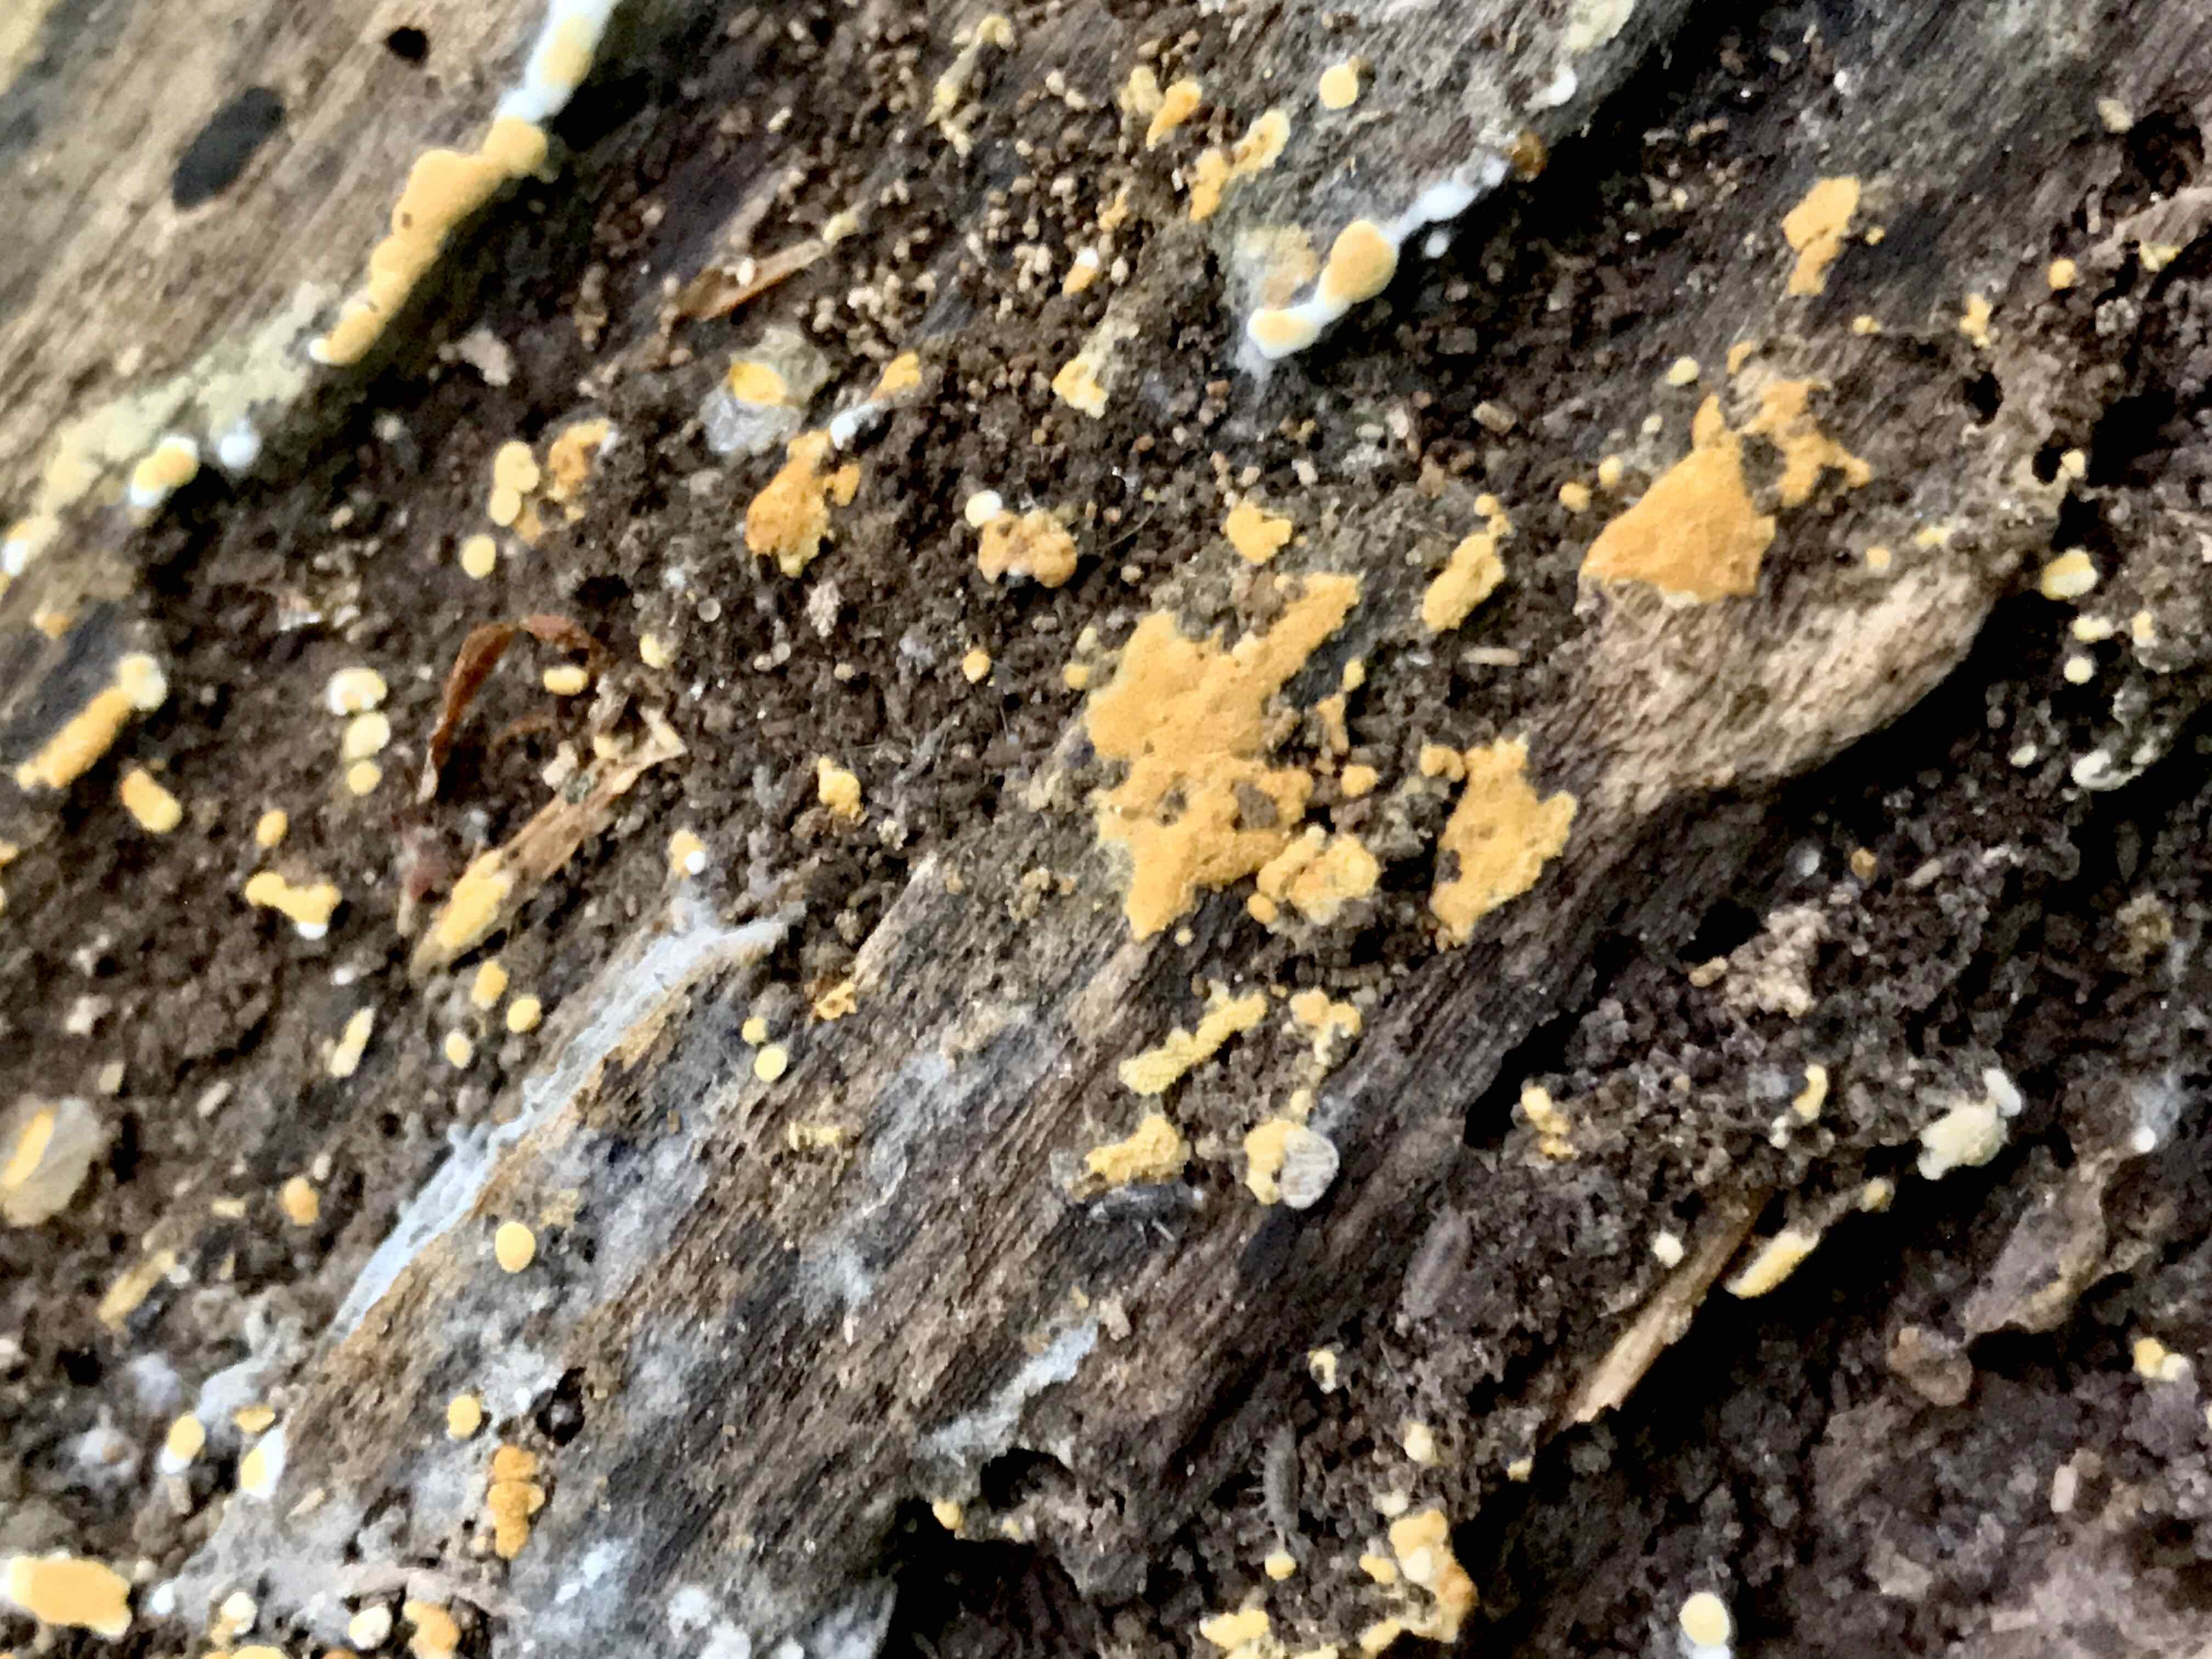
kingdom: Fungi
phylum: Basidiomycota
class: Agaricomycetes
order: Cantharellales
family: Botryobasidiaceae
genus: Botryobasidium
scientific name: Botryobasidium aureum
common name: gylden spindhinde
